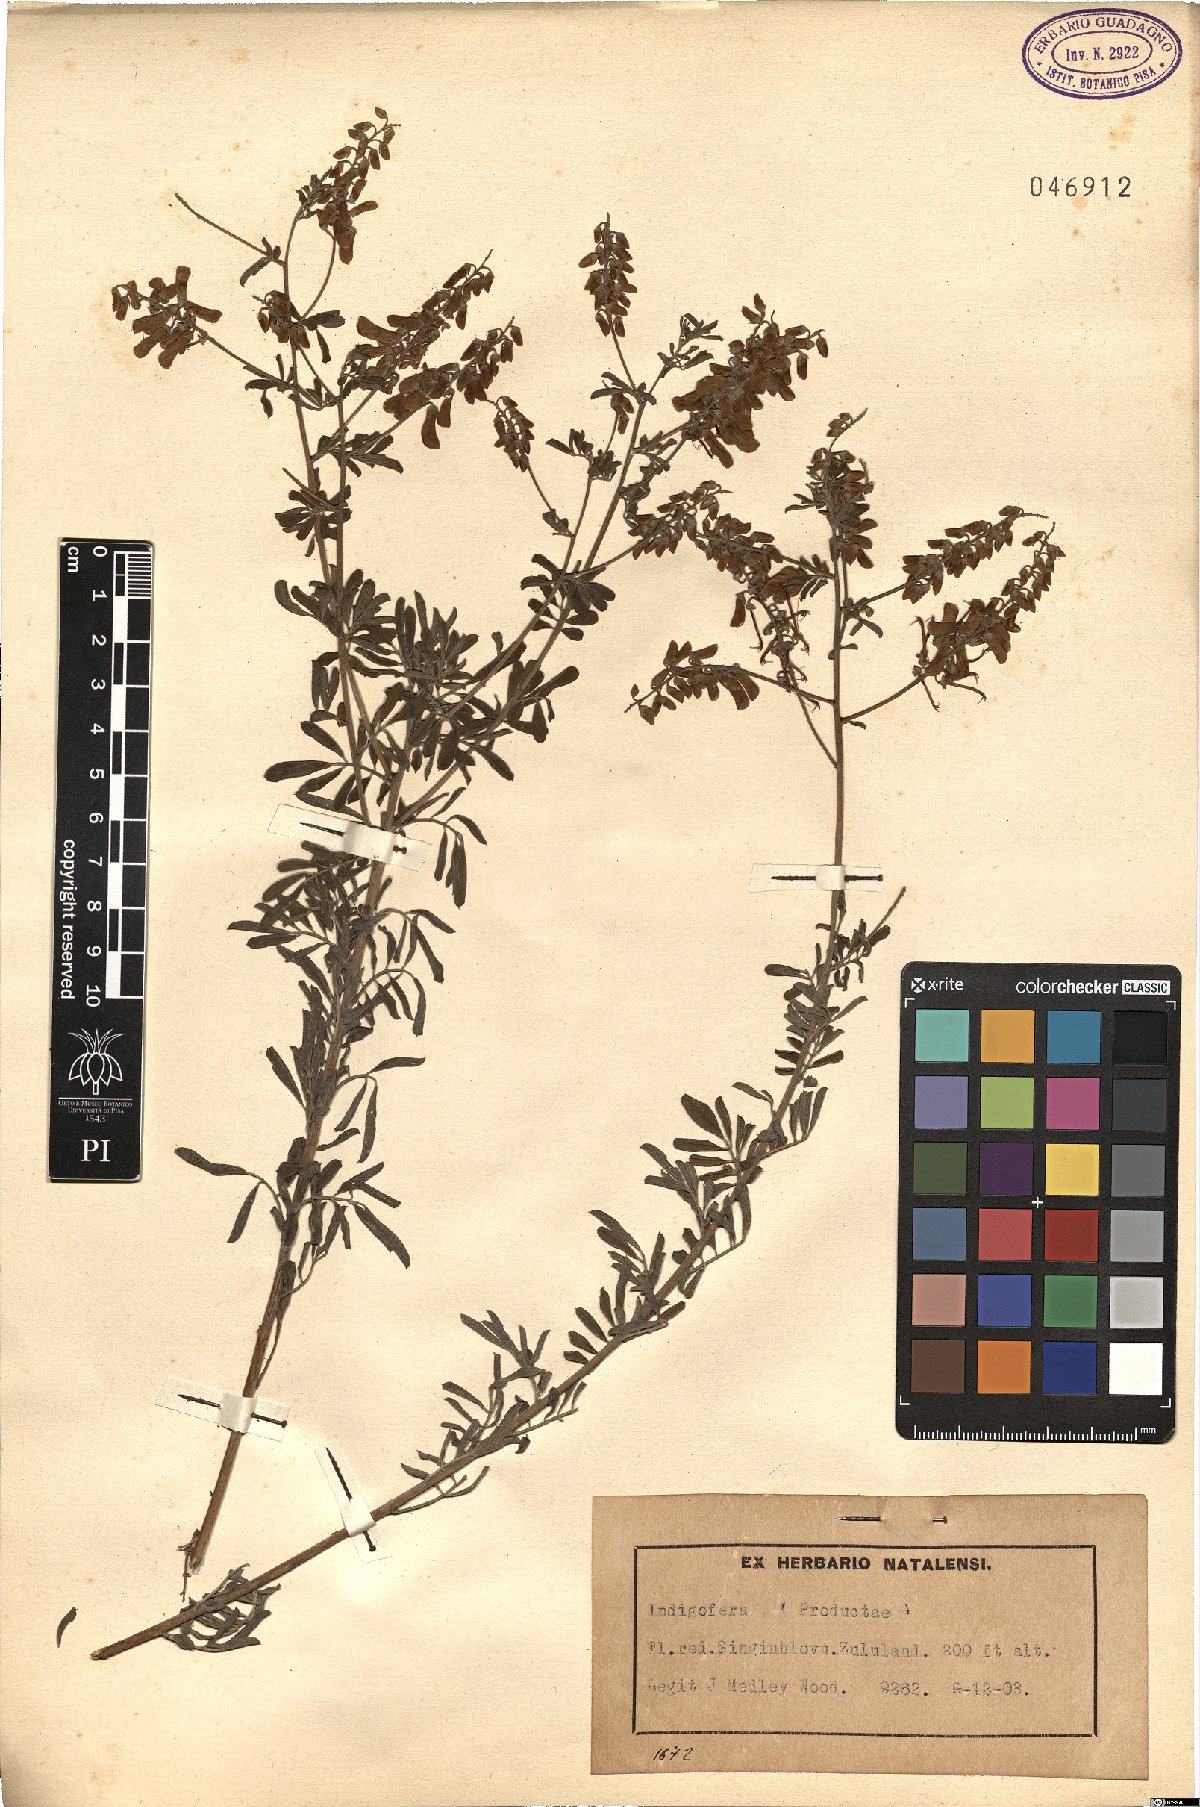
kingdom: Plantae
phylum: Tracheophyta
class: Magnoliopsida
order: Fabales
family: Fabaceae
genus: Indigofera
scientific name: Indigofera
